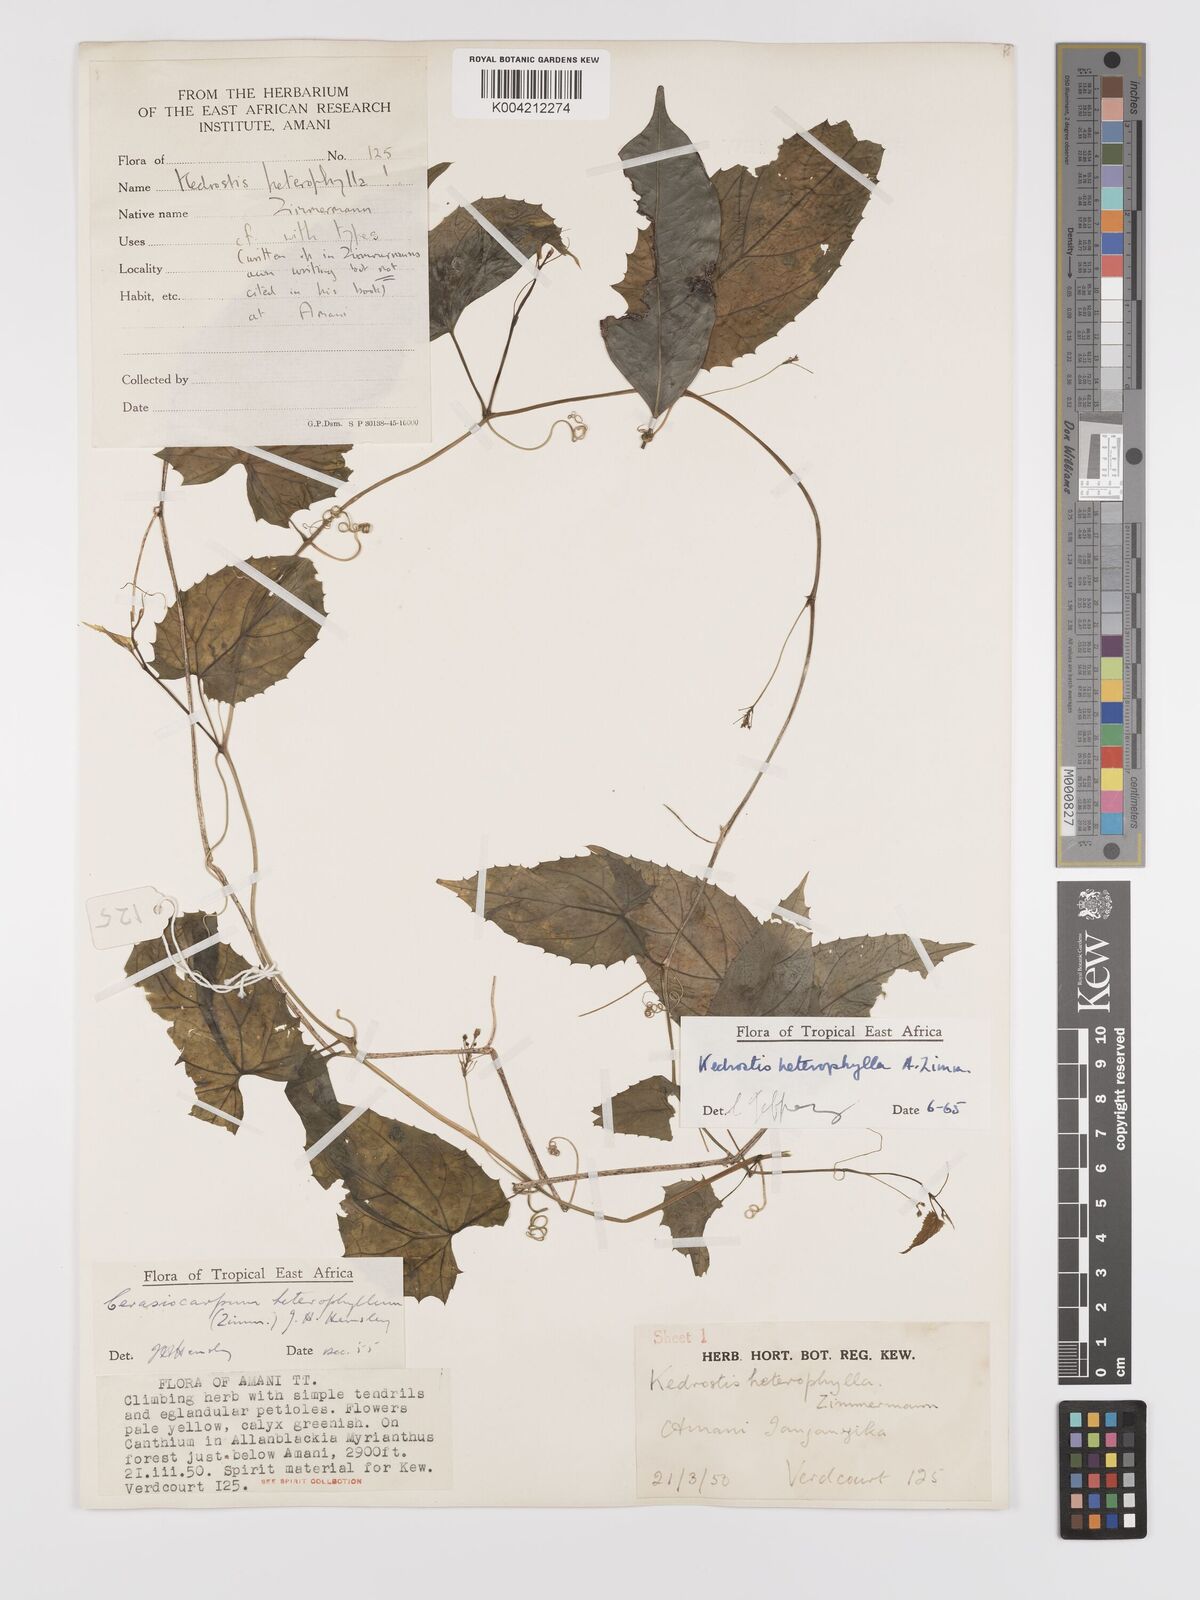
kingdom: Plantae
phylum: Tracheophyta
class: Magnoliopsida
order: Cucurbitales
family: Cucurbitaceae
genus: Kedrostis
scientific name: Kedrostis heterophylla
